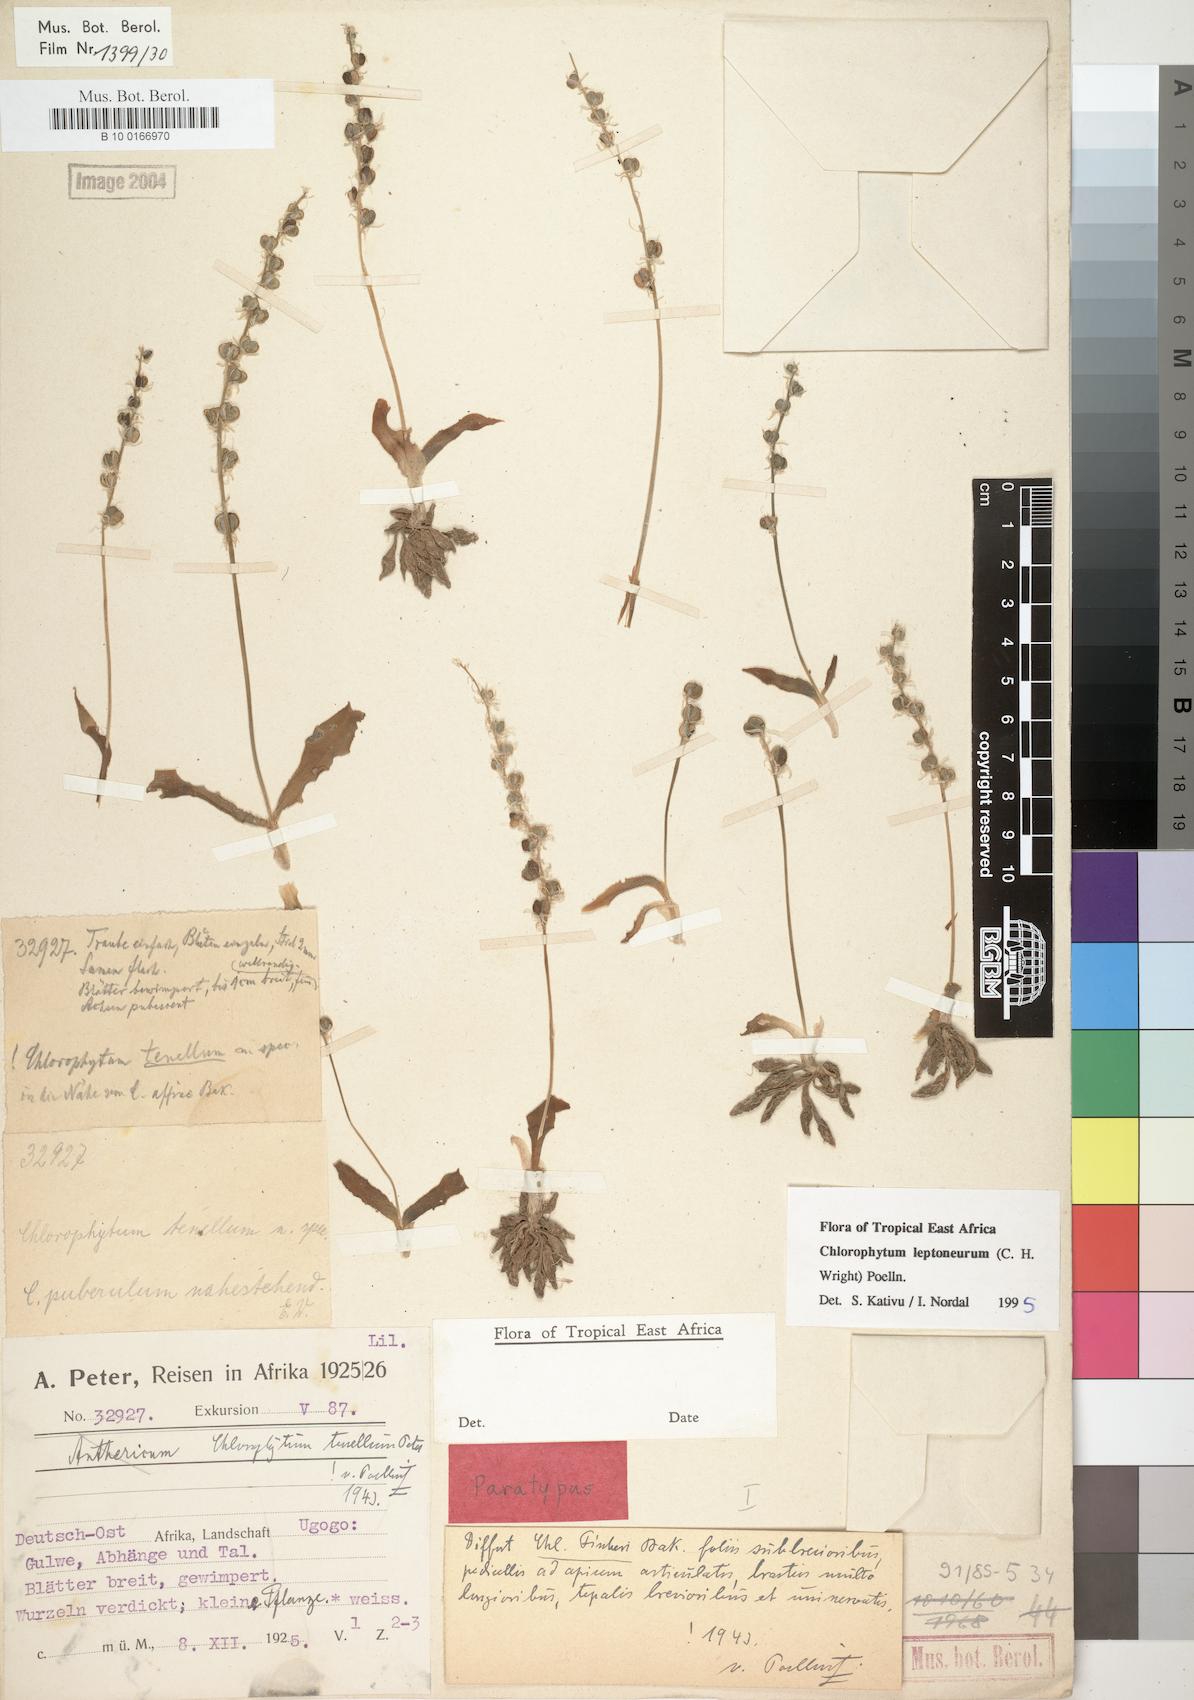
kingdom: Plantae
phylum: Tracheophyta
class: Liliopsida
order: Asparagales
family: Asparagaceae
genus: Chlorophytum
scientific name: Chlorophytum leptoneurum
